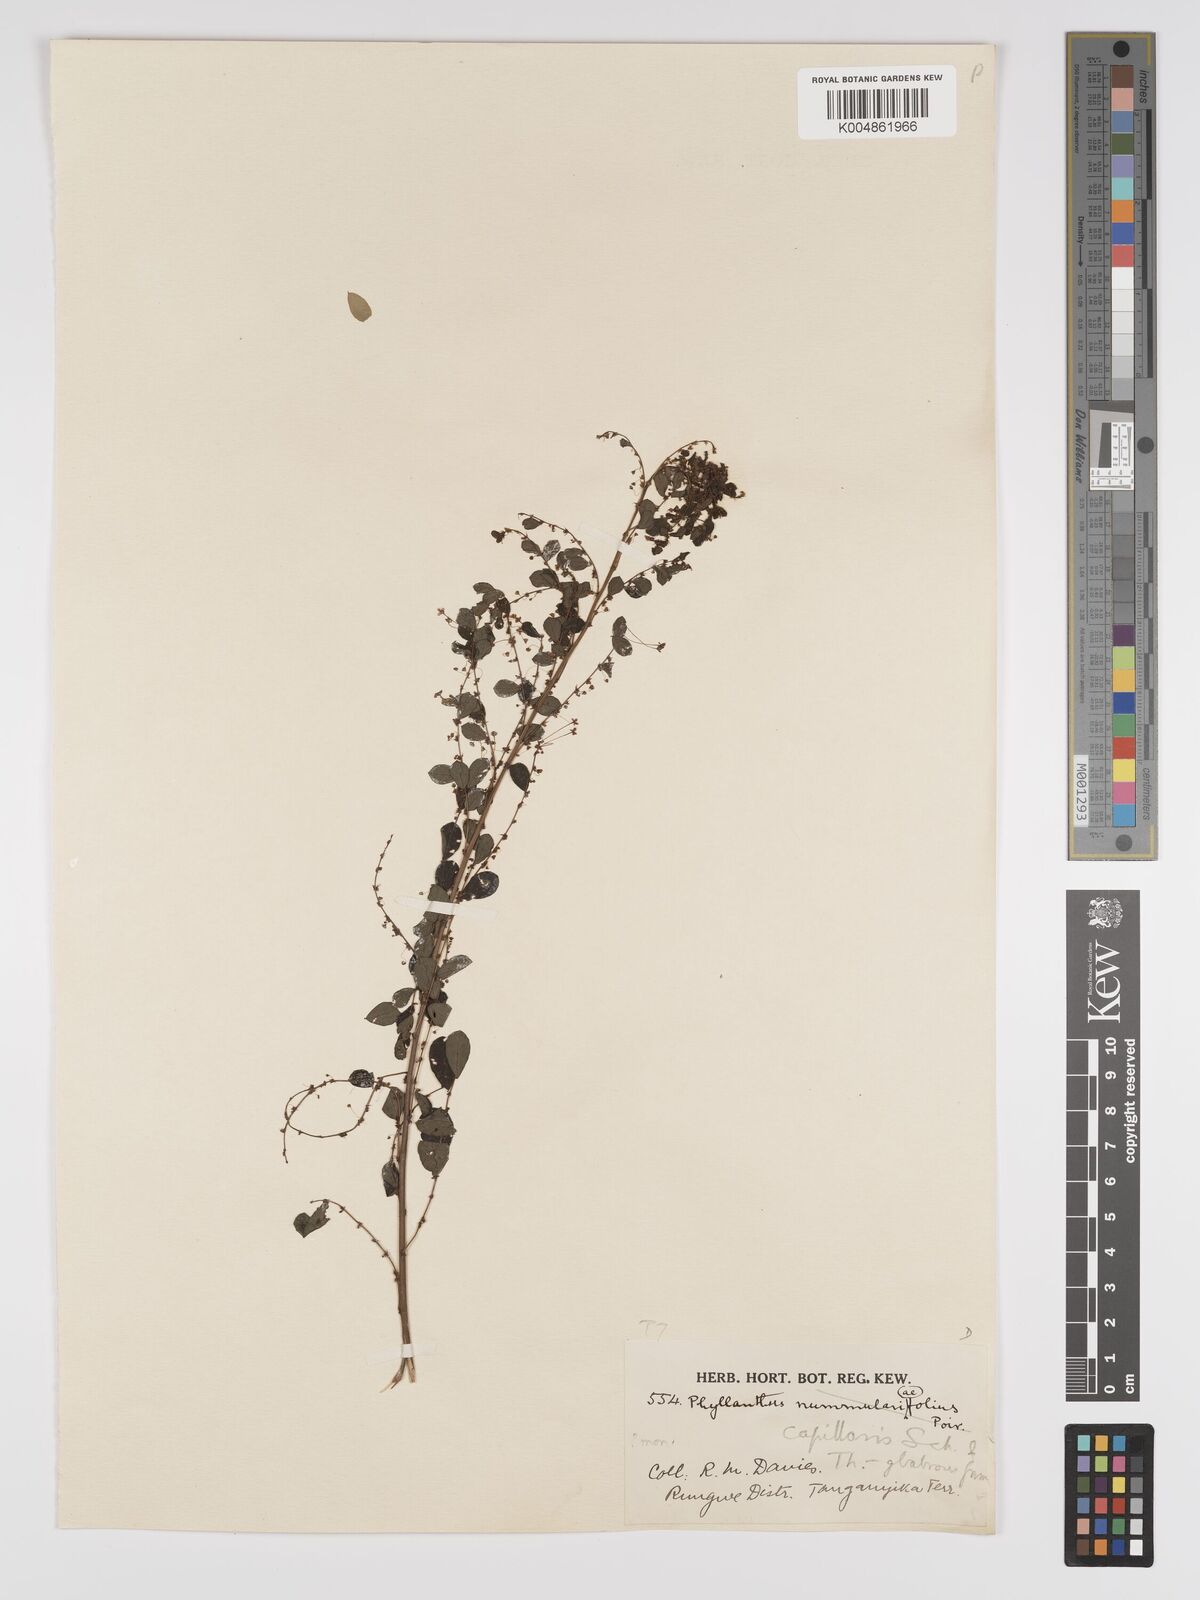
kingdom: Plantae
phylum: Tracheophyta
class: Magnoliopsida
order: Malpighiales
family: Phyllanthaceae
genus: Phyllanthus
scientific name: Phyllanthus nummulariifolius
